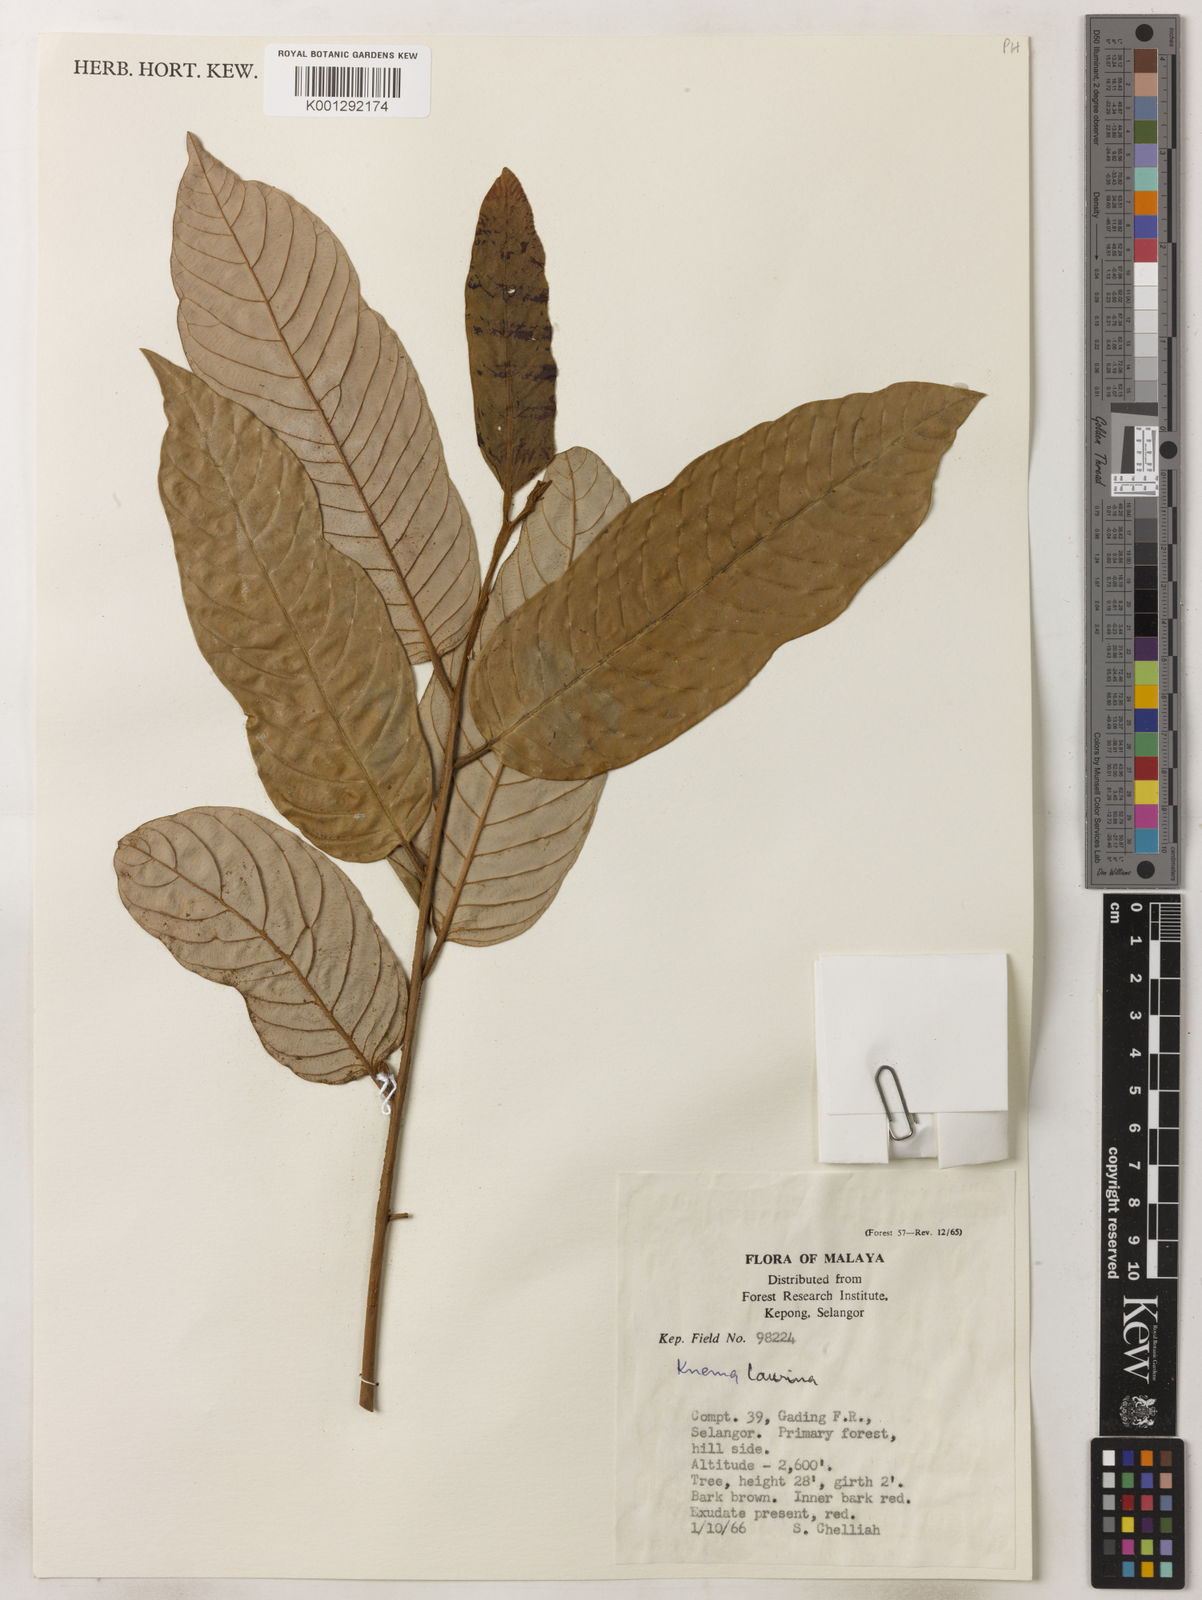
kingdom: Plantae
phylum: Tracheophyta
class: Magnoliopsida
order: Magnoliales
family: Myristicaceae
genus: Knema
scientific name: Knema laurina
